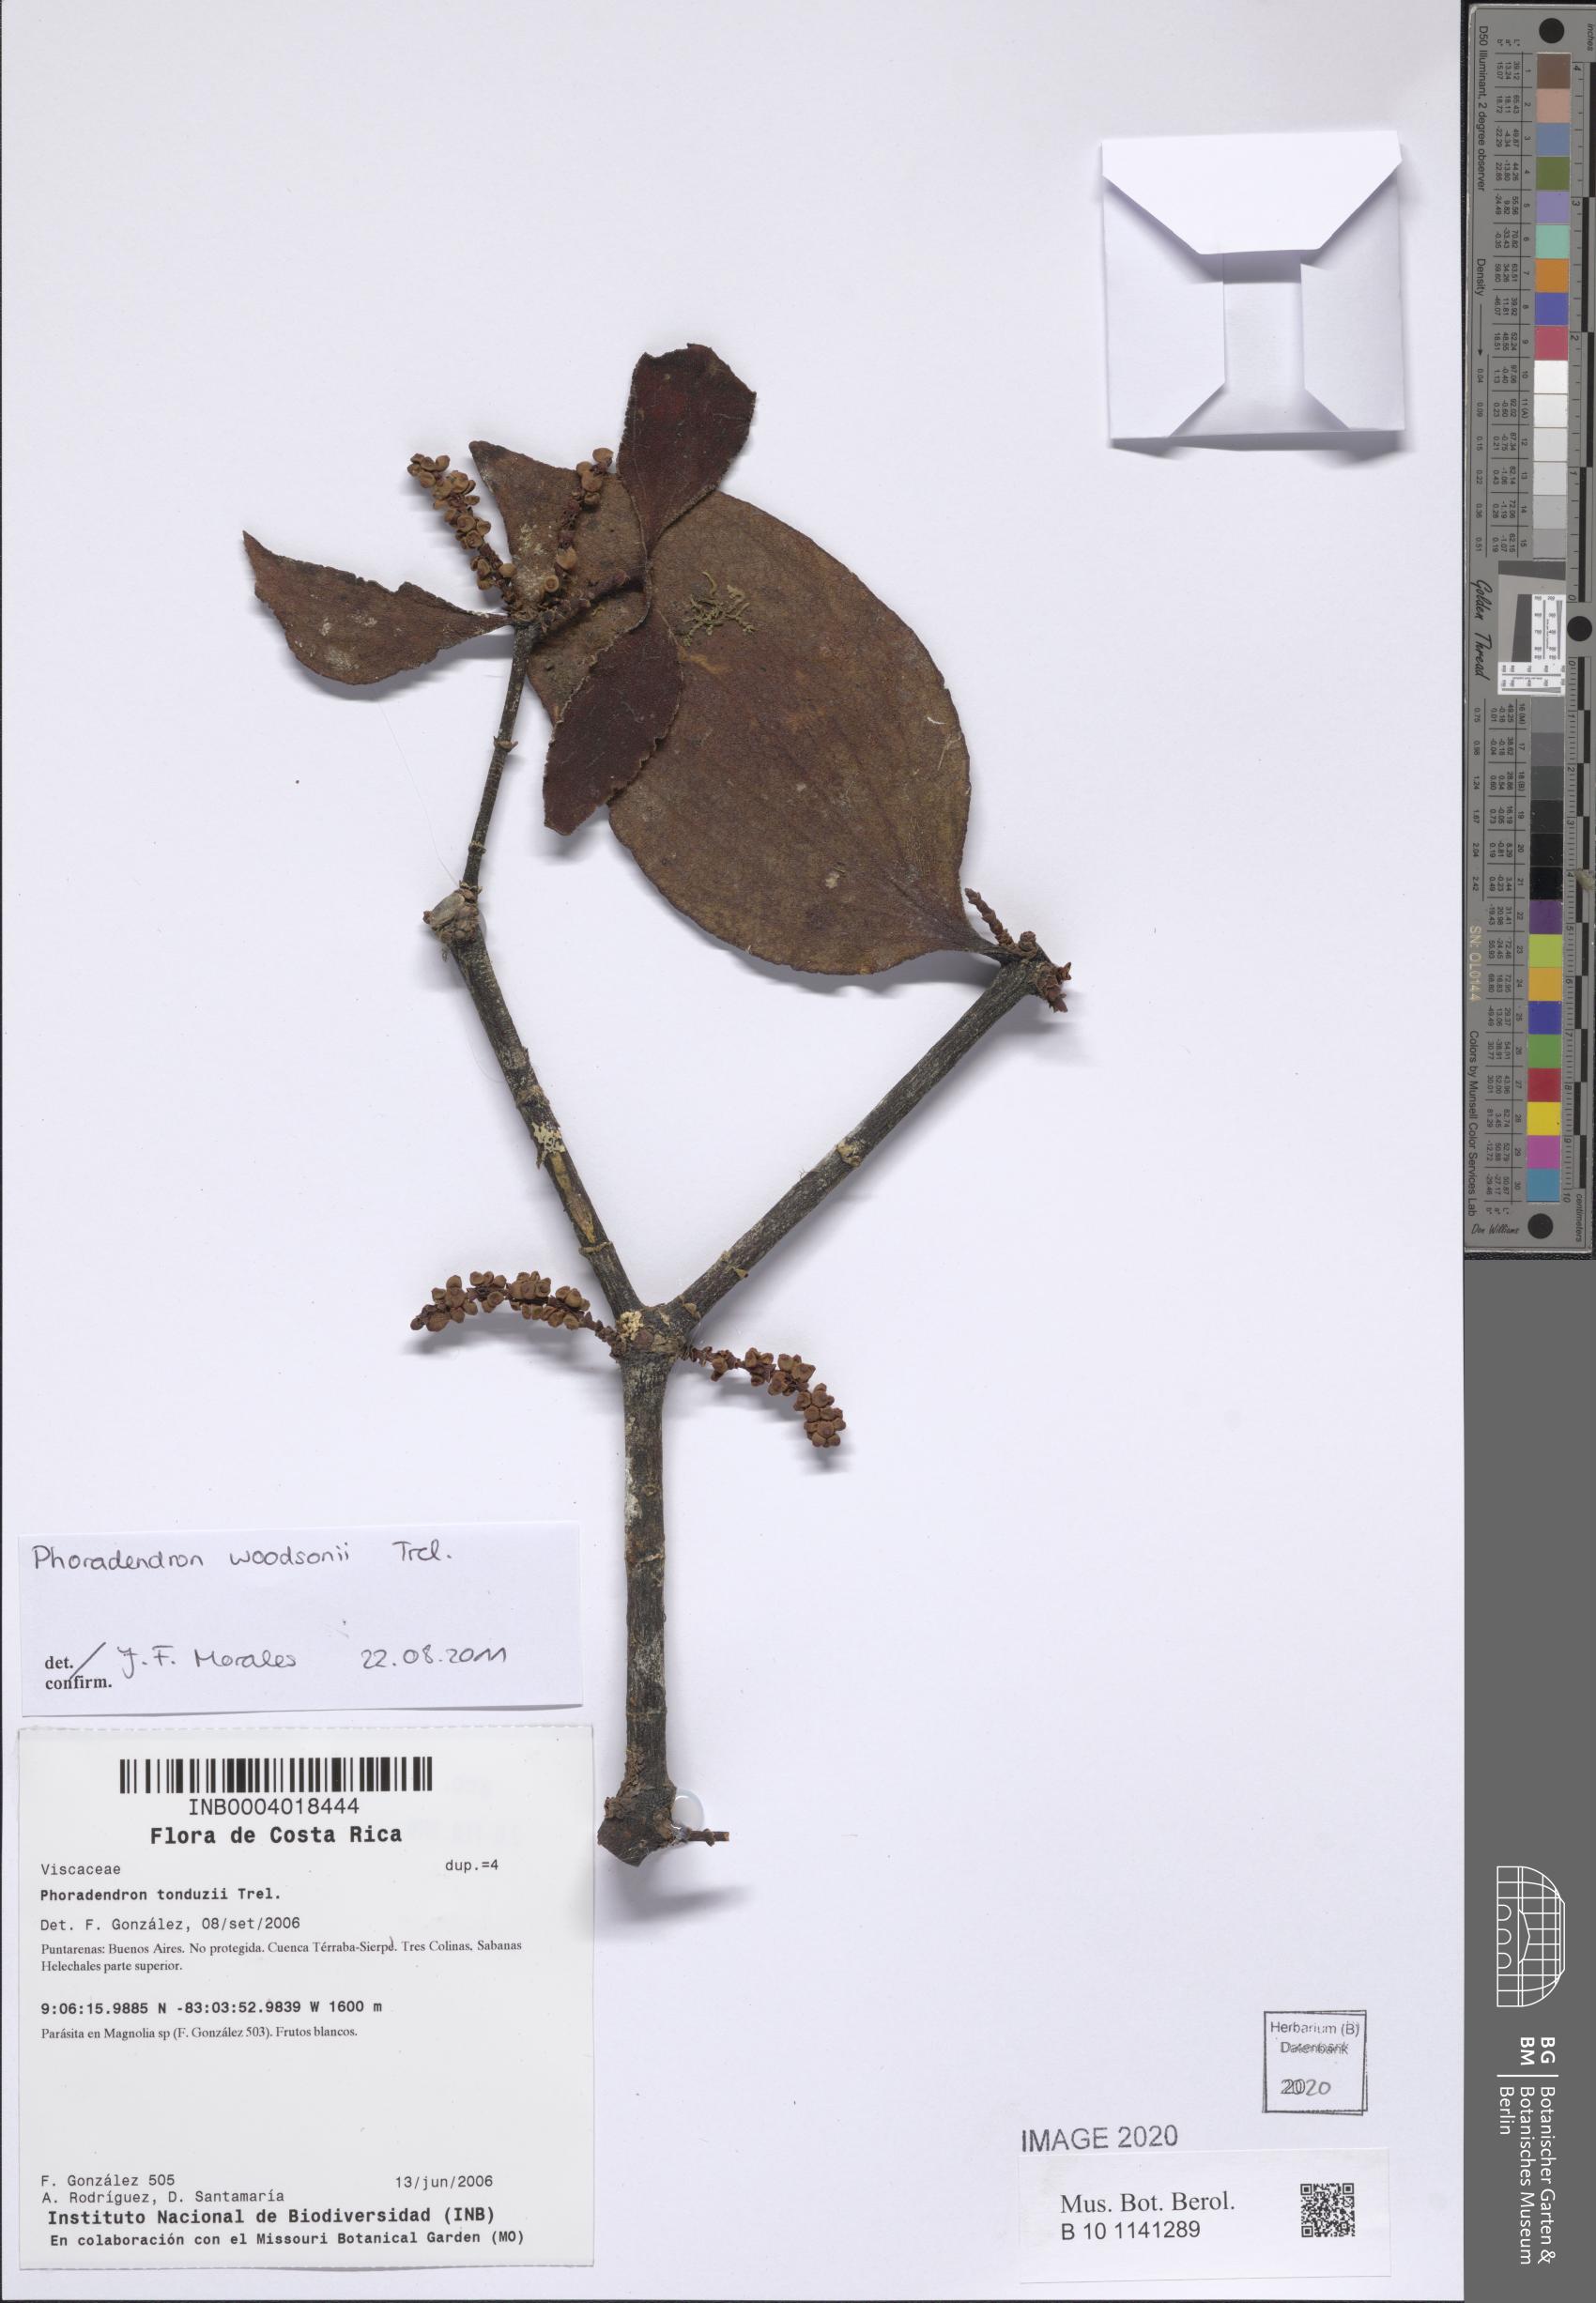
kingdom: Plantae
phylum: Tracheophyta
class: Magnoliopsida
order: Santalales
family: Viscaceae
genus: Phoradendron
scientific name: Phoradendron woodsonii
